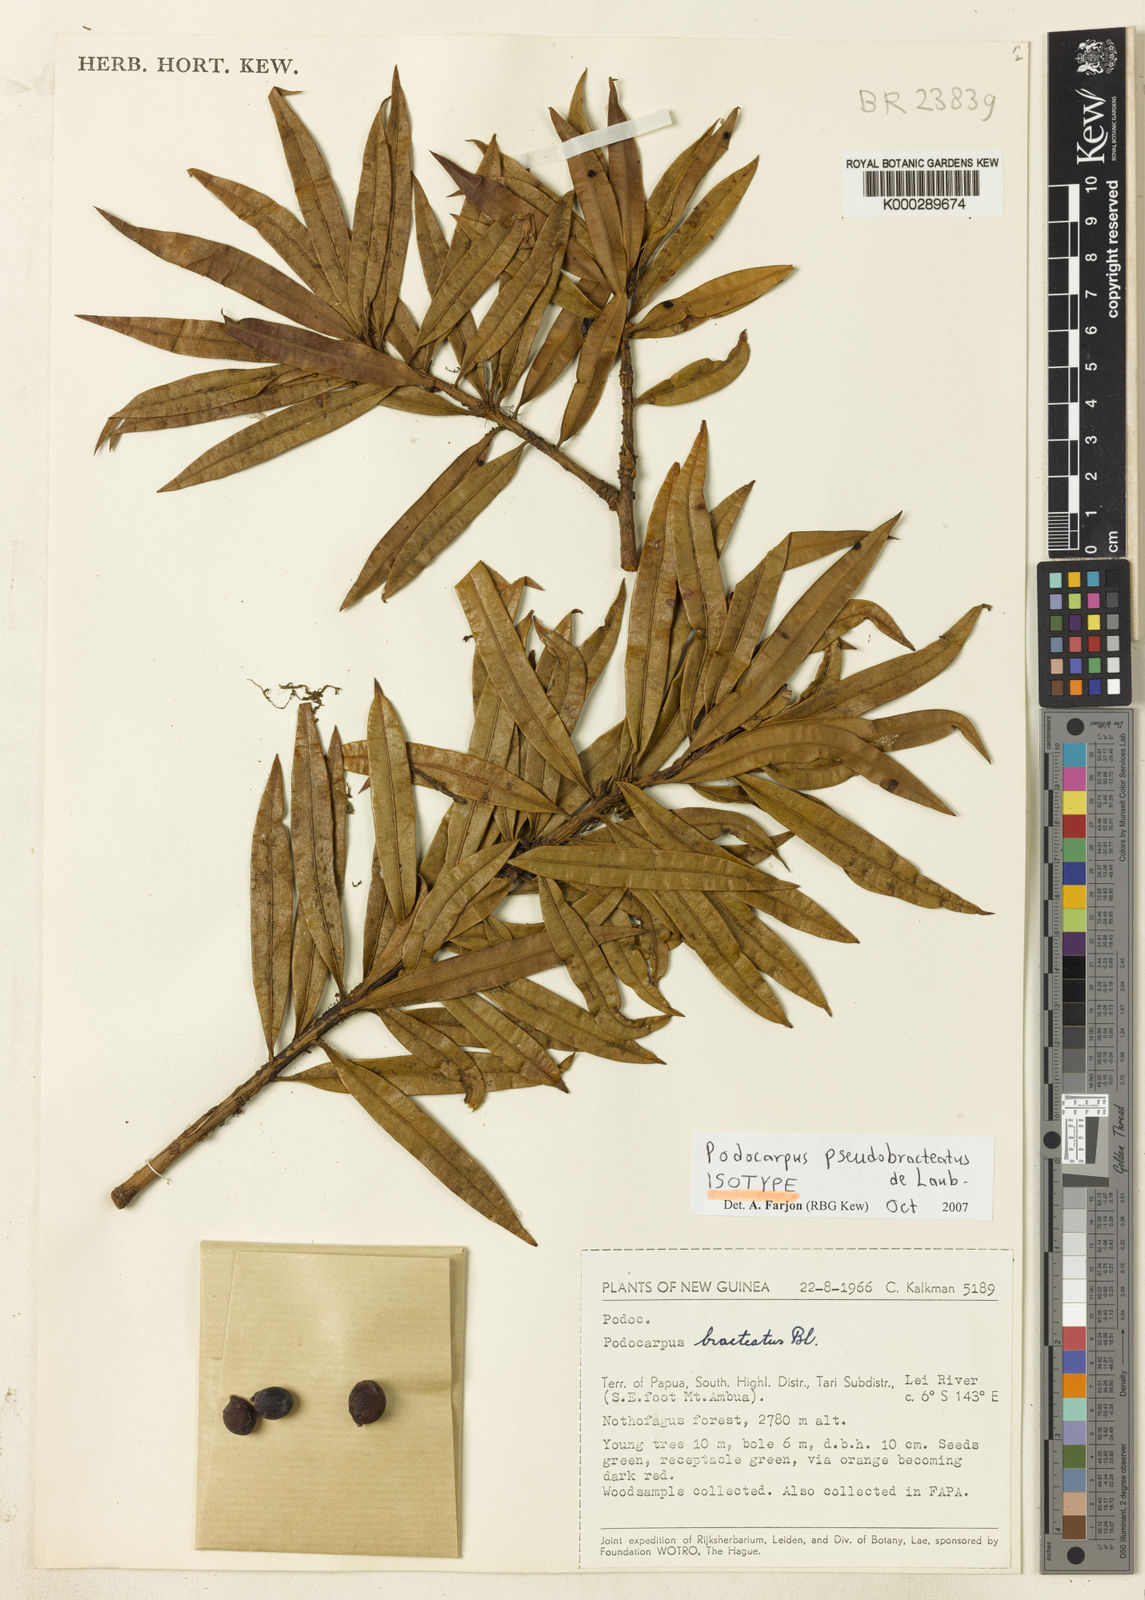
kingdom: Plantae
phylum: Tracheophyta
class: Pinopsida
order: Pinales
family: Podocarpaceae
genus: Podocarpus
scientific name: Podocarpus pseudobracteatus
